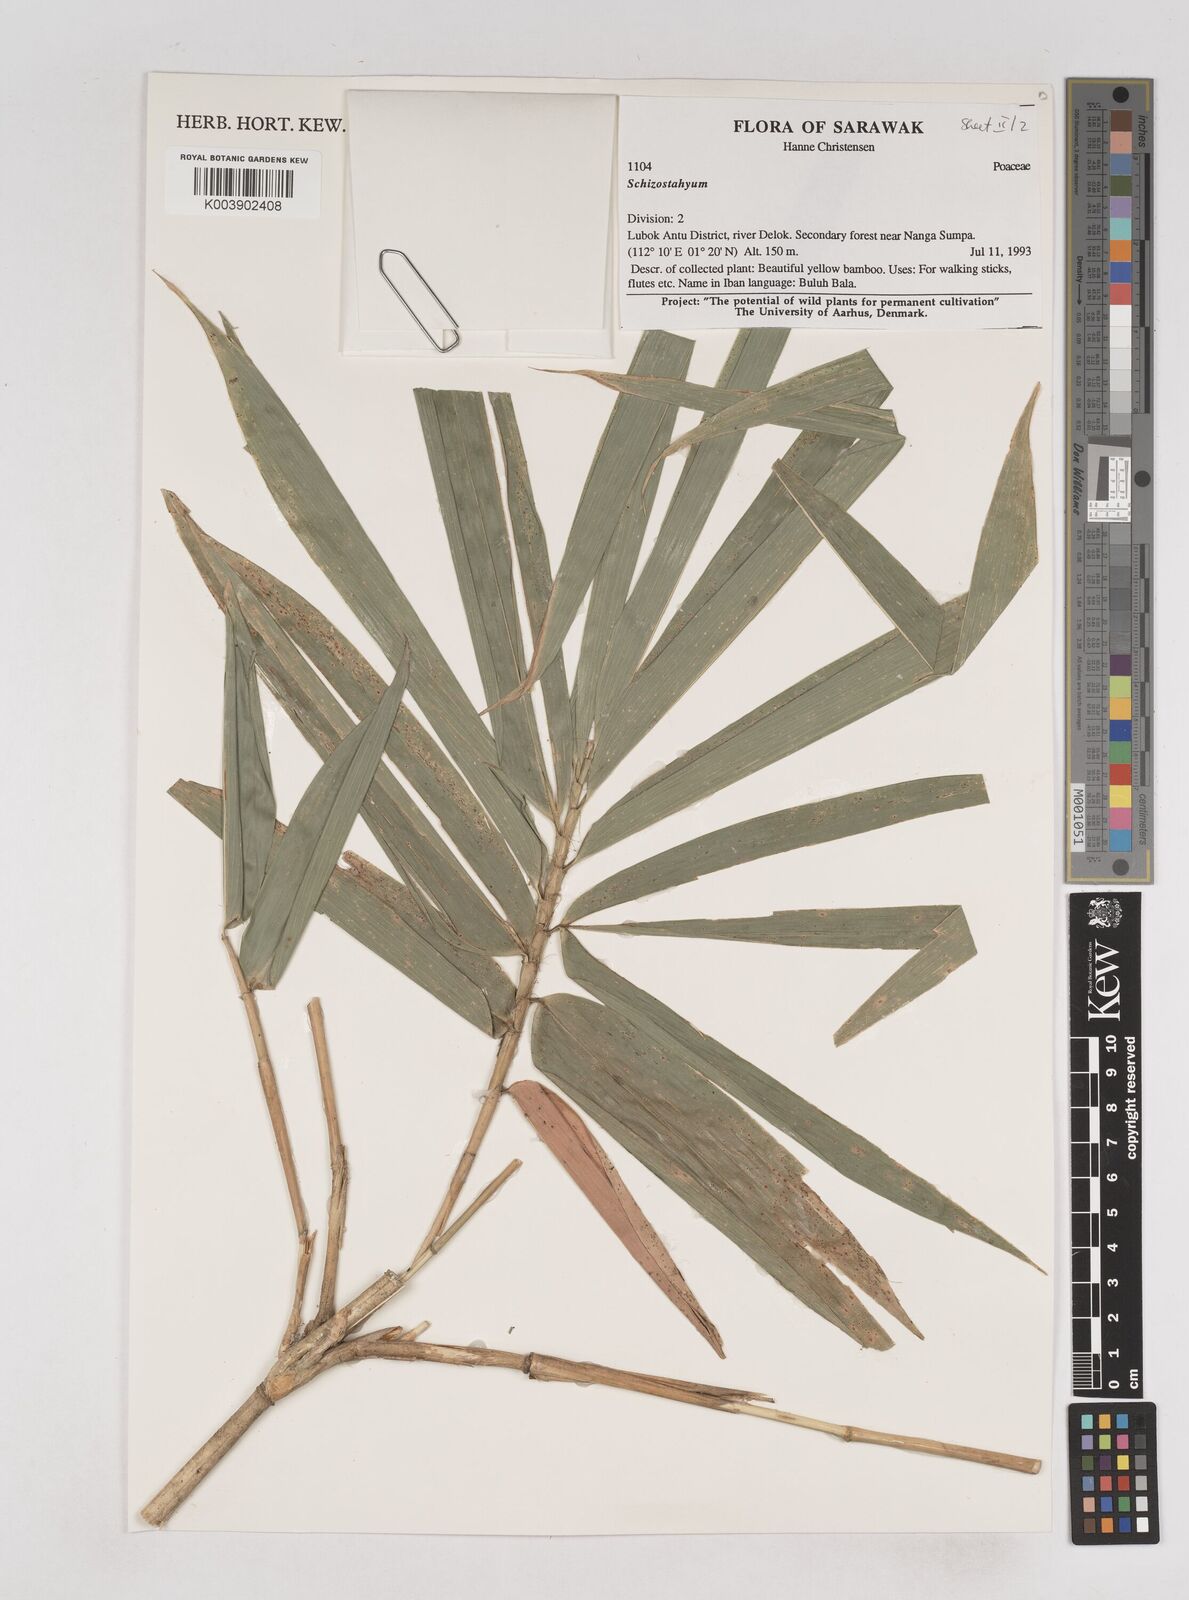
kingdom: Plantae
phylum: Tracheophyta
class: Liliopsida
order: Poales
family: Poaceae
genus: Schizostachyum
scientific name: Schizostachyum
